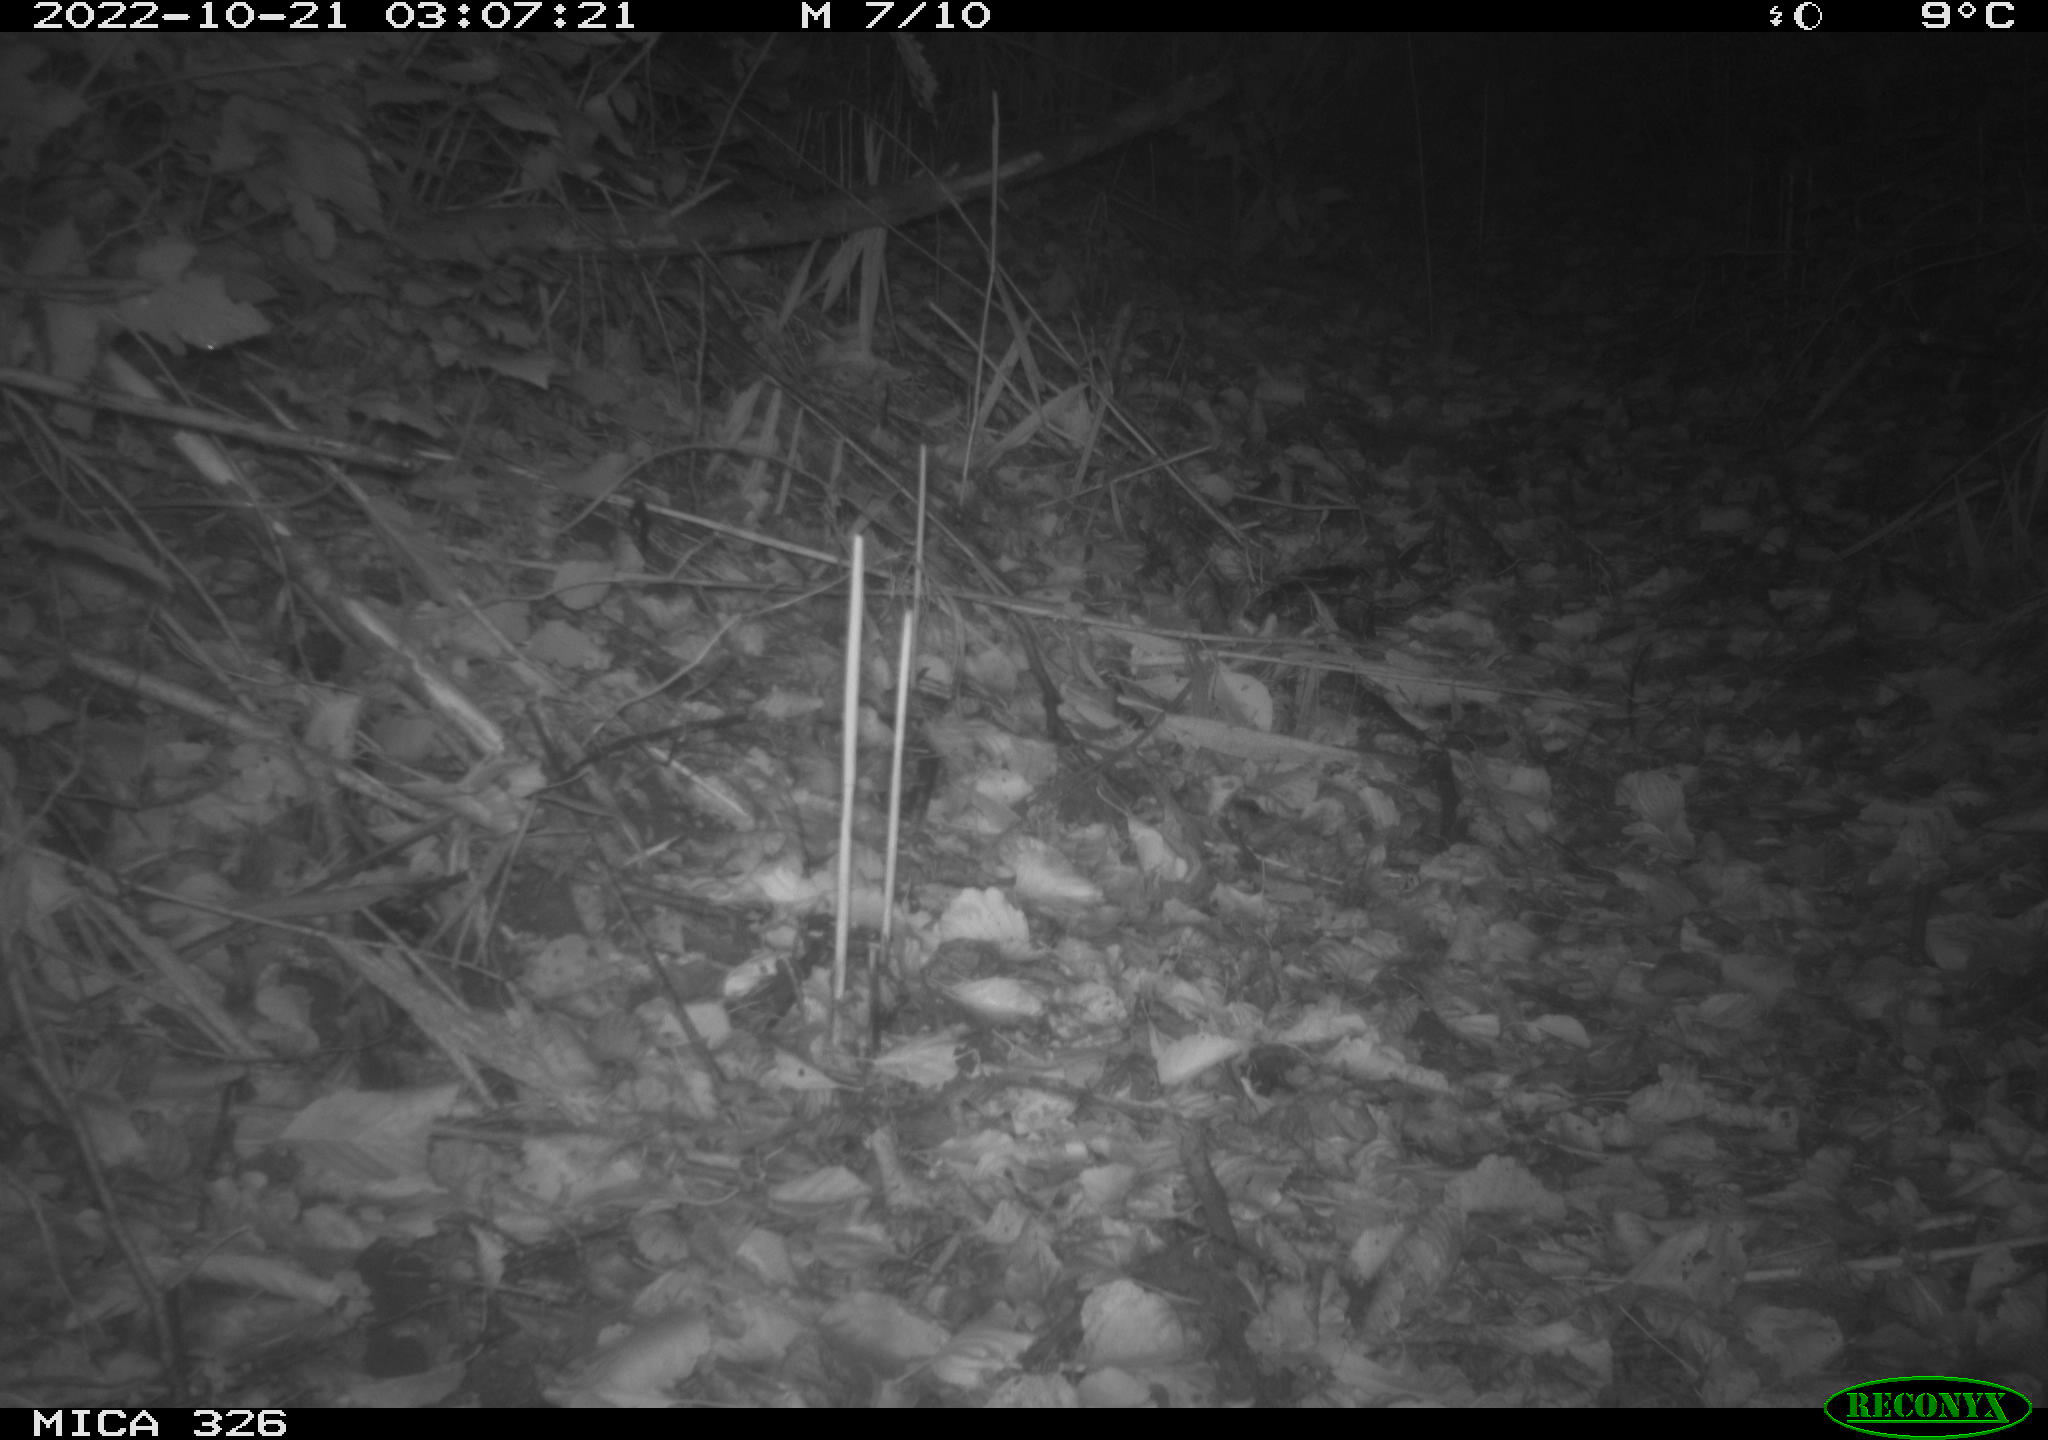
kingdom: Animalia
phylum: Chordata
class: Mammalia
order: Carnivora
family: Mustelidae
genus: Martes
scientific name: Martes martes
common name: European pine marten
